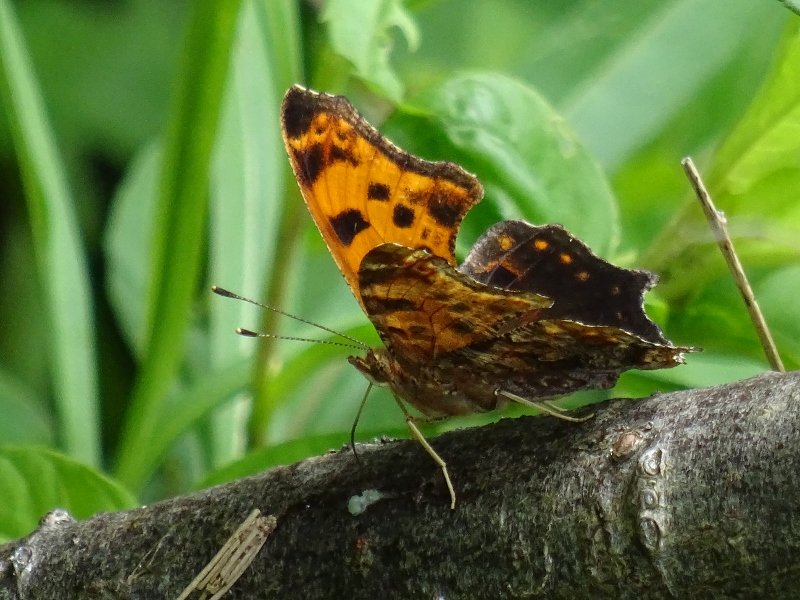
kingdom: Animalia
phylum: Arthropoda
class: Insecta
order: Lepidoptera
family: Nymphalidae
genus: Polygonia
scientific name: Polygonia comma
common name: Eastern Comma
